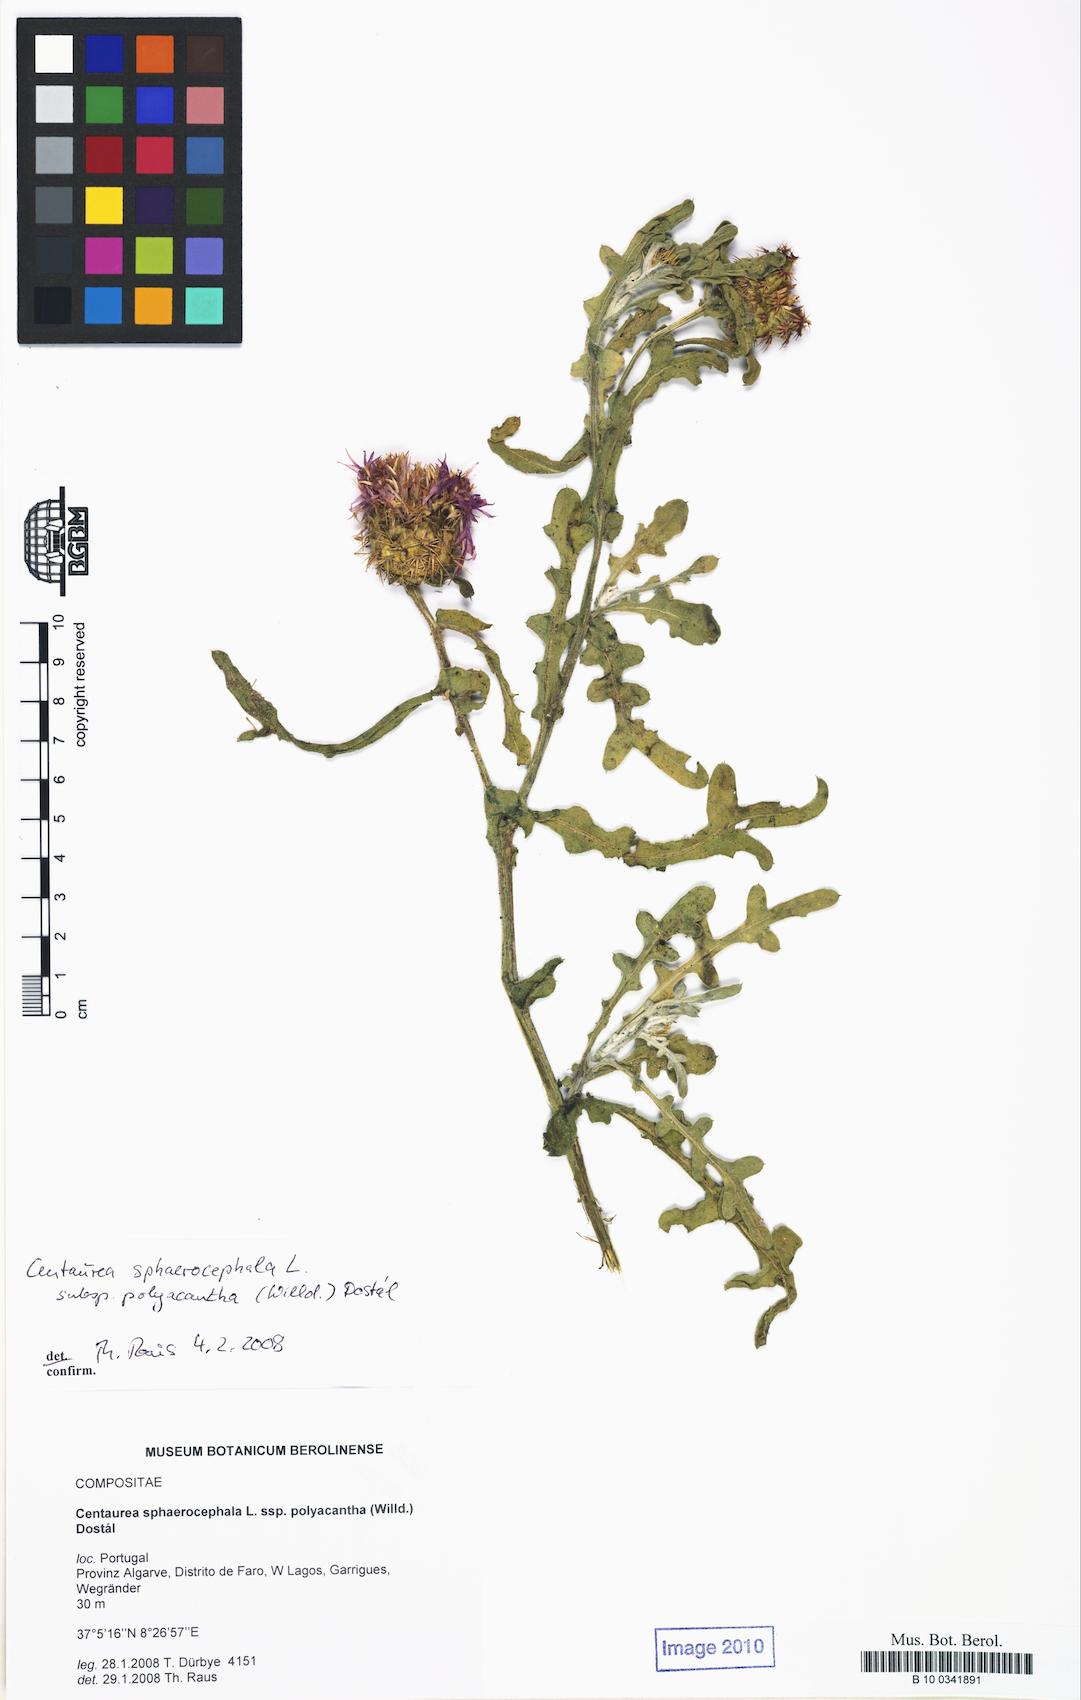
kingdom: Plantae
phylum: Tracheophyta
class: Magnoliopsida
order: Asterales
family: Asteraceae
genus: Centaurea
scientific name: Centaurea polyacantha
